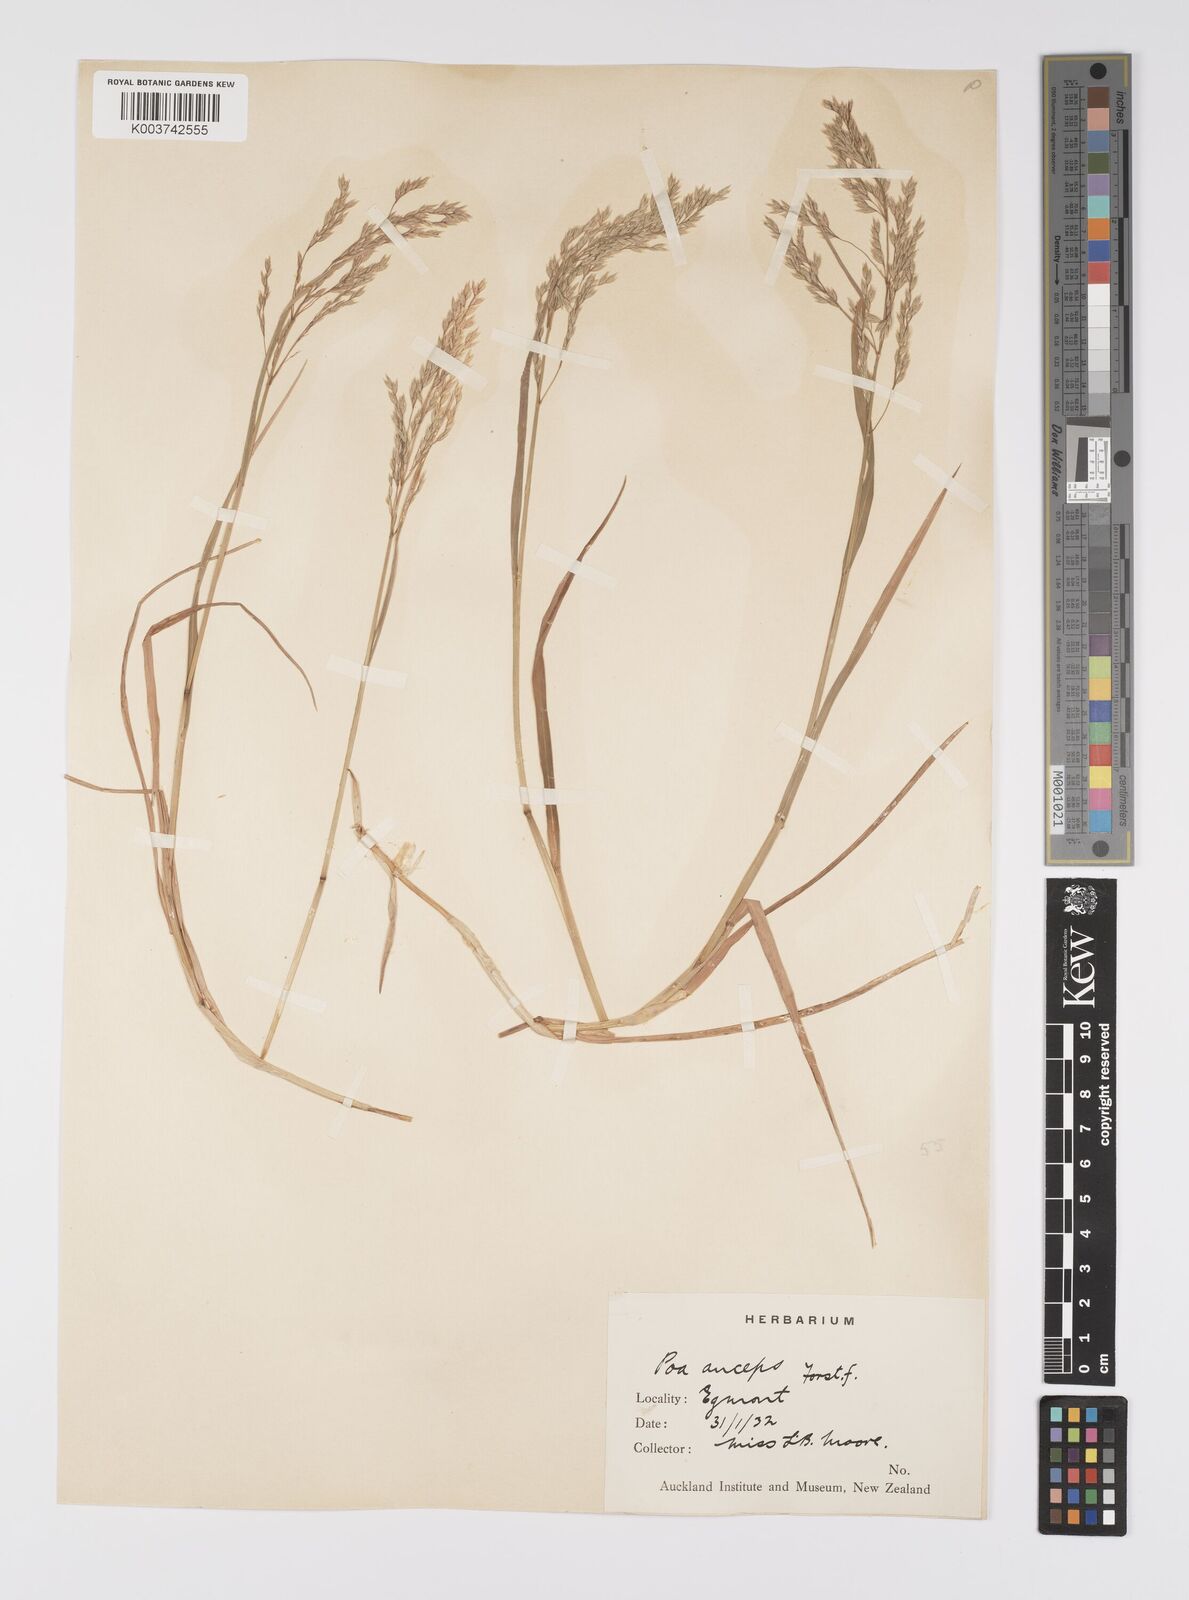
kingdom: Plantae
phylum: Tracheophyta
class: Liliopsida
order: Poales
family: Poaceae
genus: Poa
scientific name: Poa anceps
